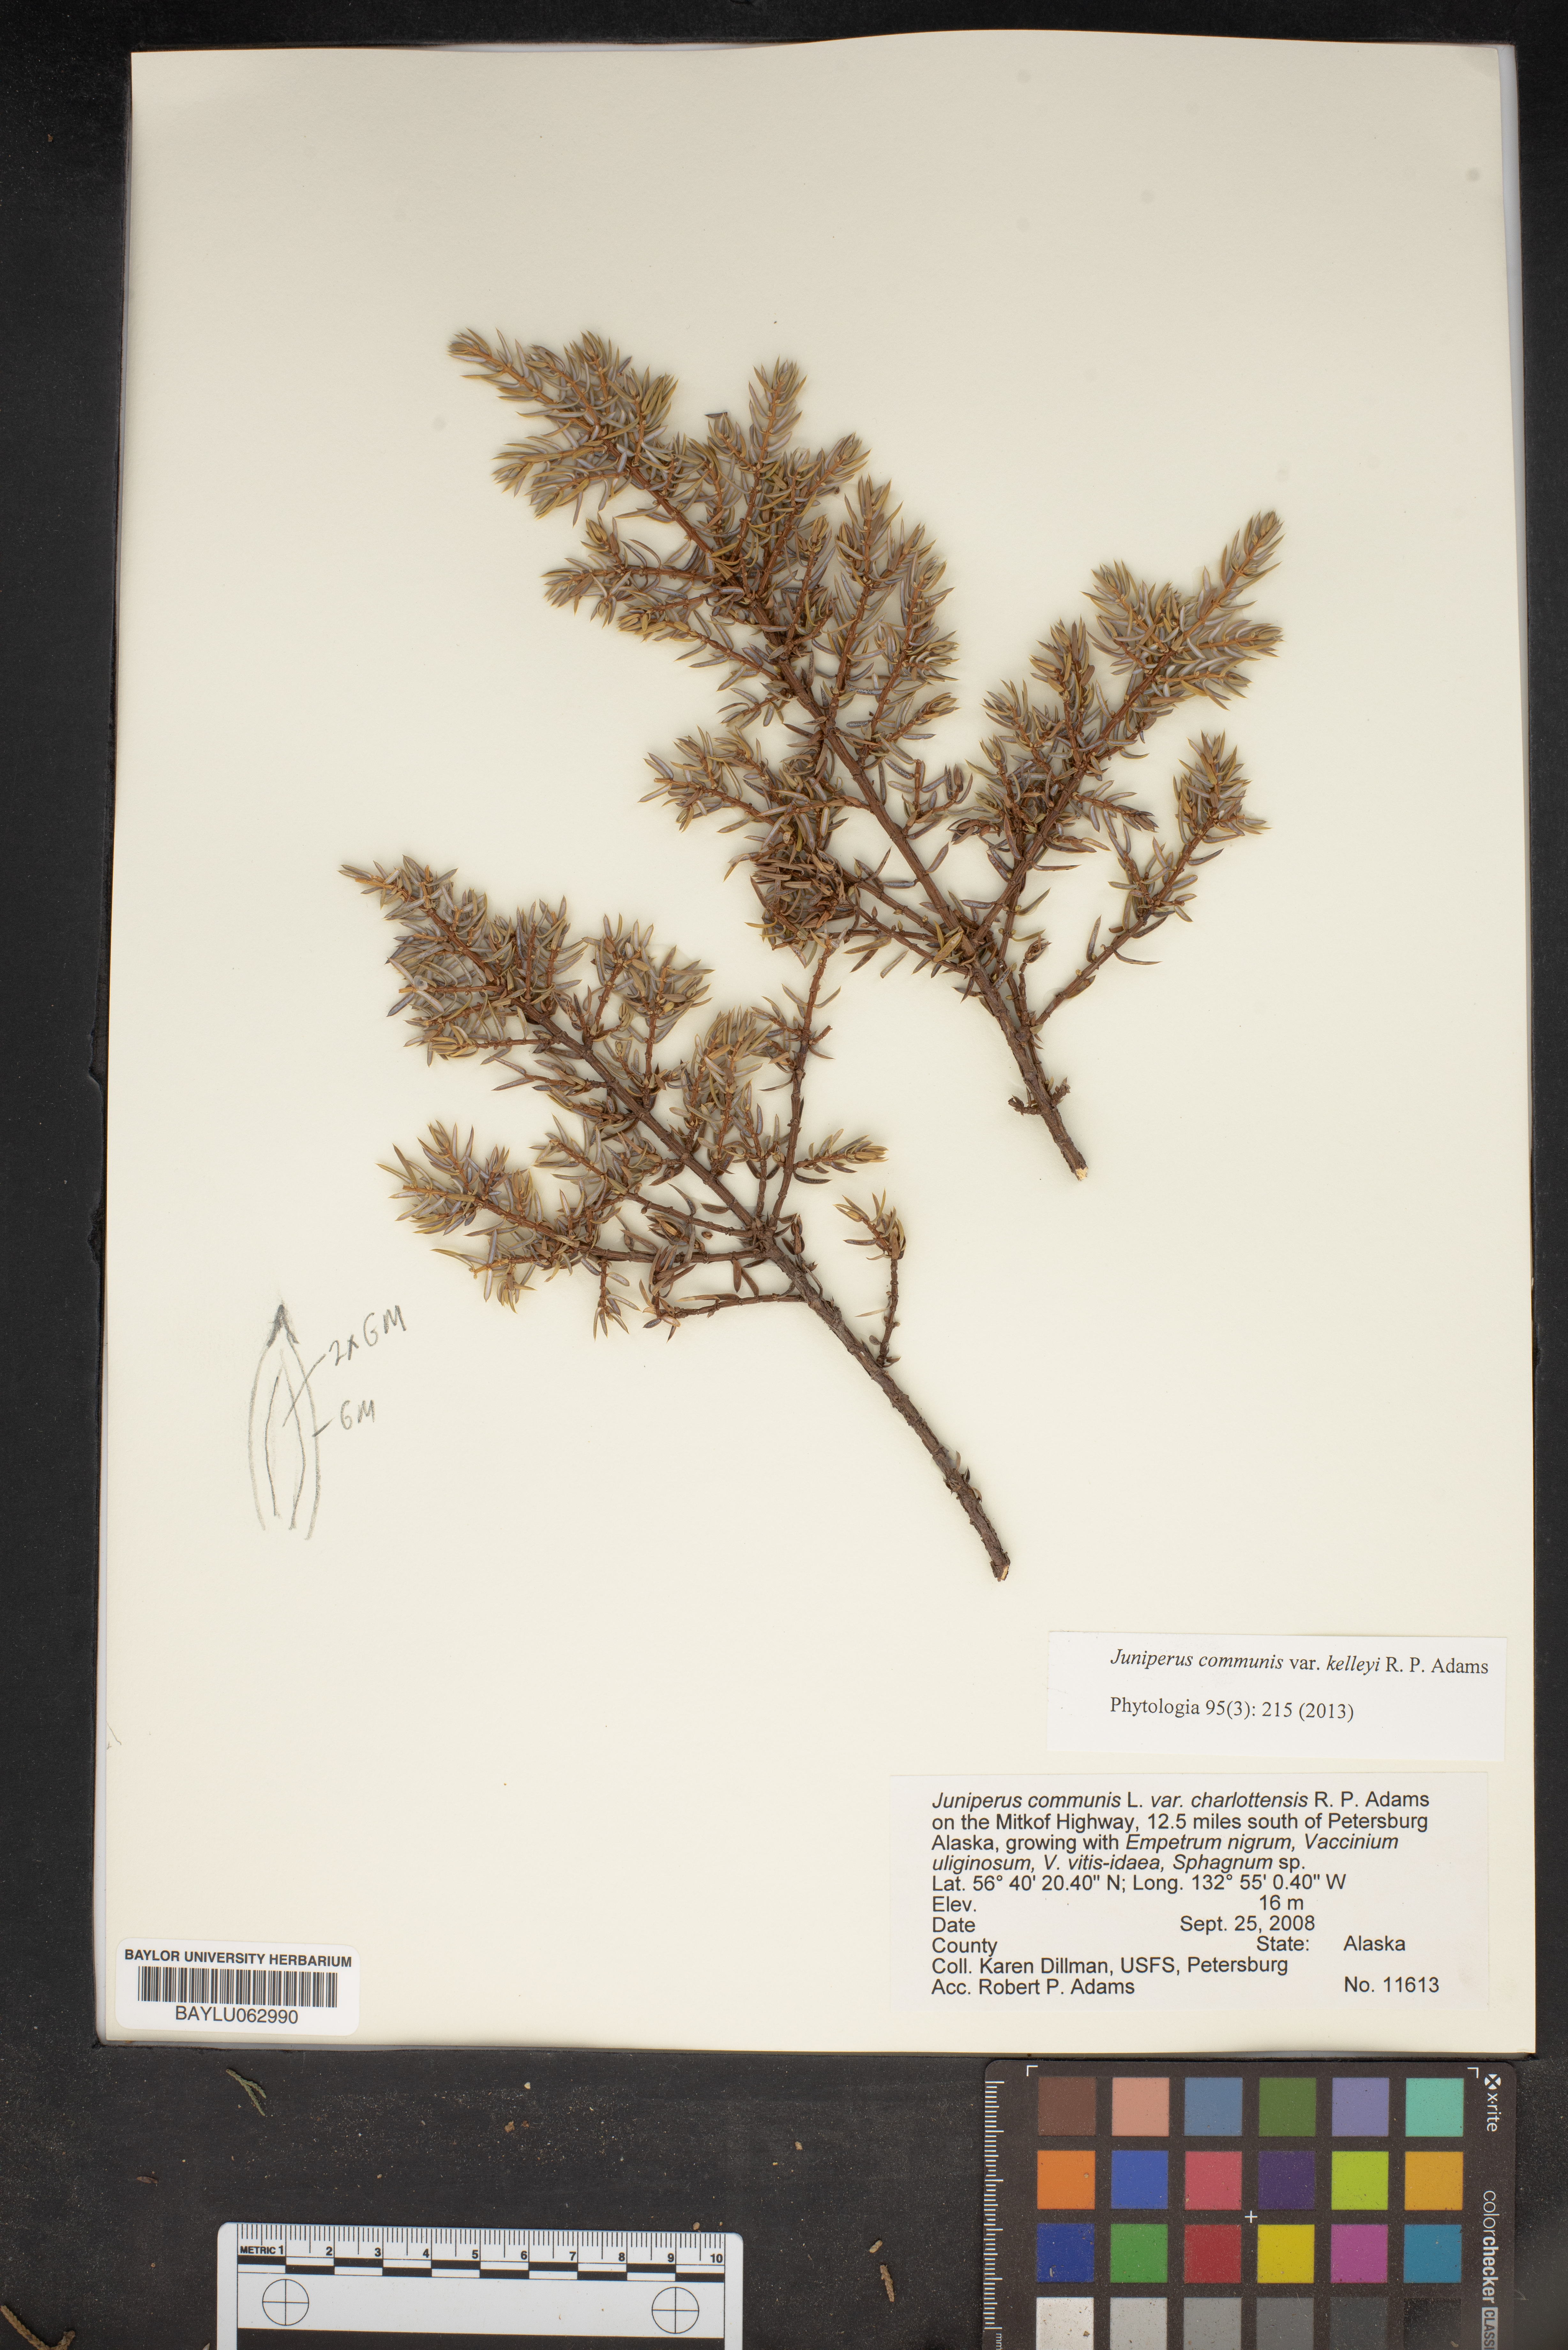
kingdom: Plantae
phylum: Tracheophyta
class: Pinopsida
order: Pinales
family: Cupressaceae
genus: Juniperus
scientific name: Juniperus communis
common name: Common juniper
